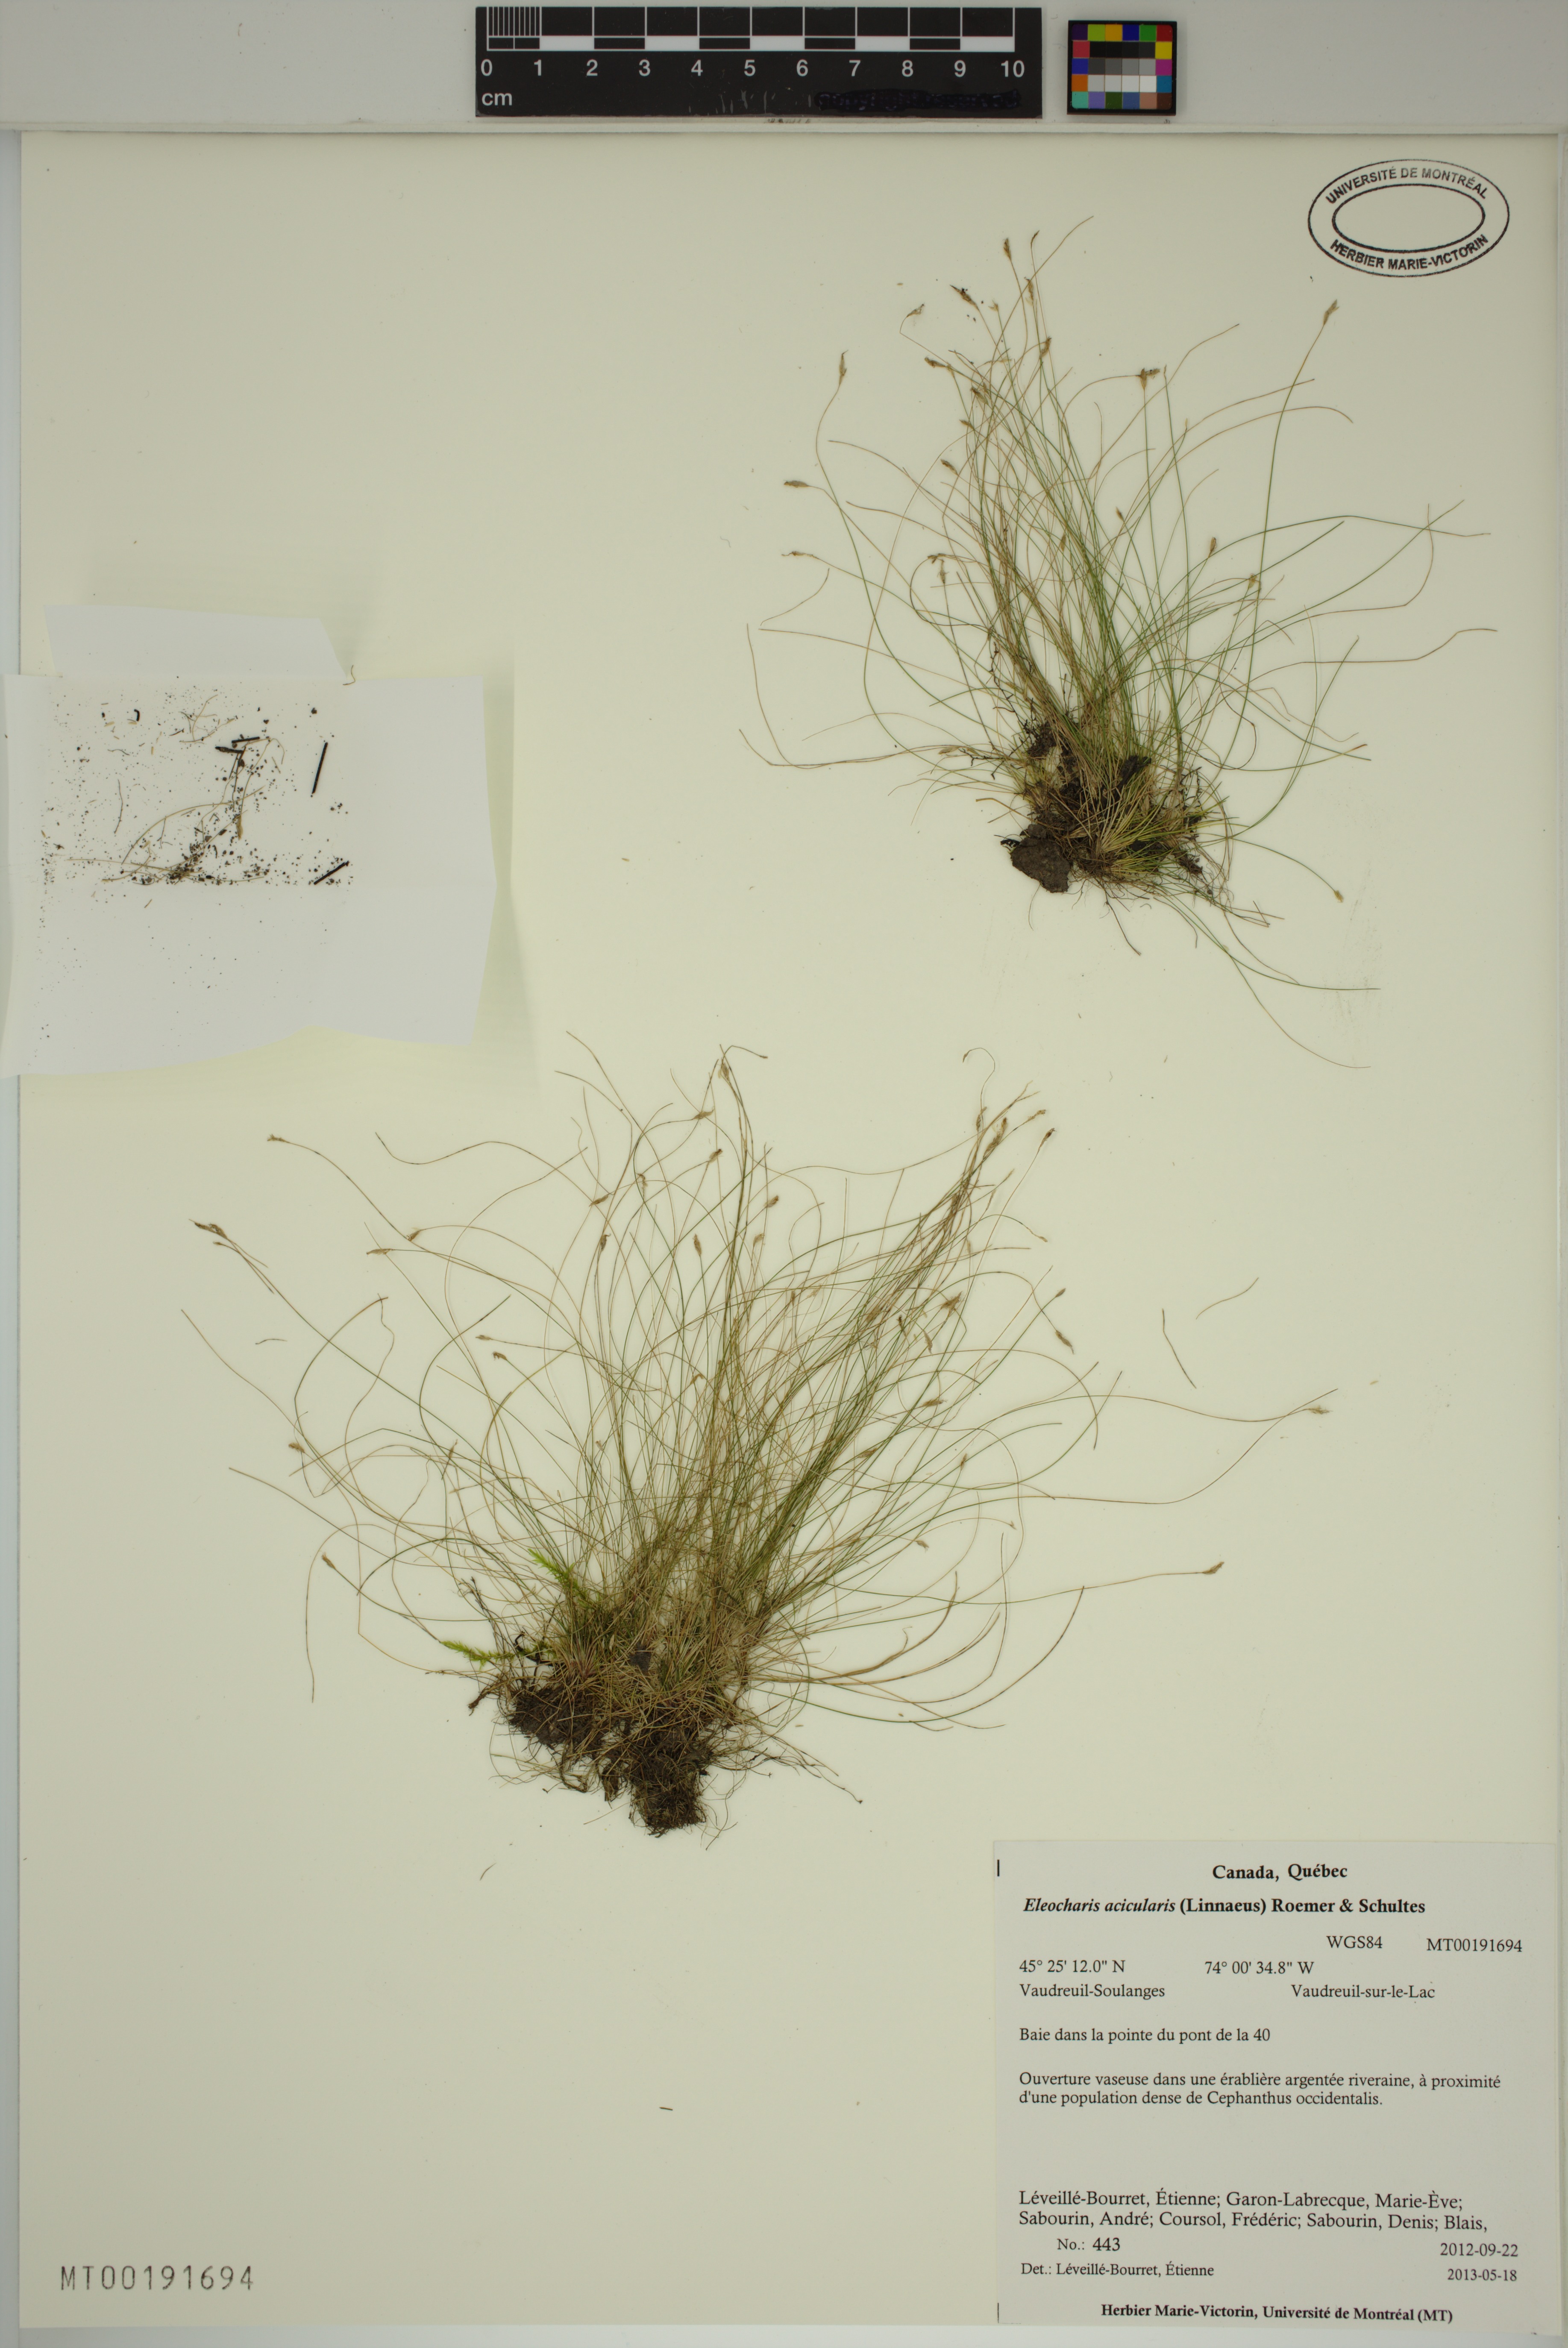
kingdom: Plantae
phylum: Tracheophyta
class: Liliopsida
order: Poales
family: Cyperaceae
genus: Eleocharis
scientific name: Eleocharis acicularis
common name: Needle spike-rush
